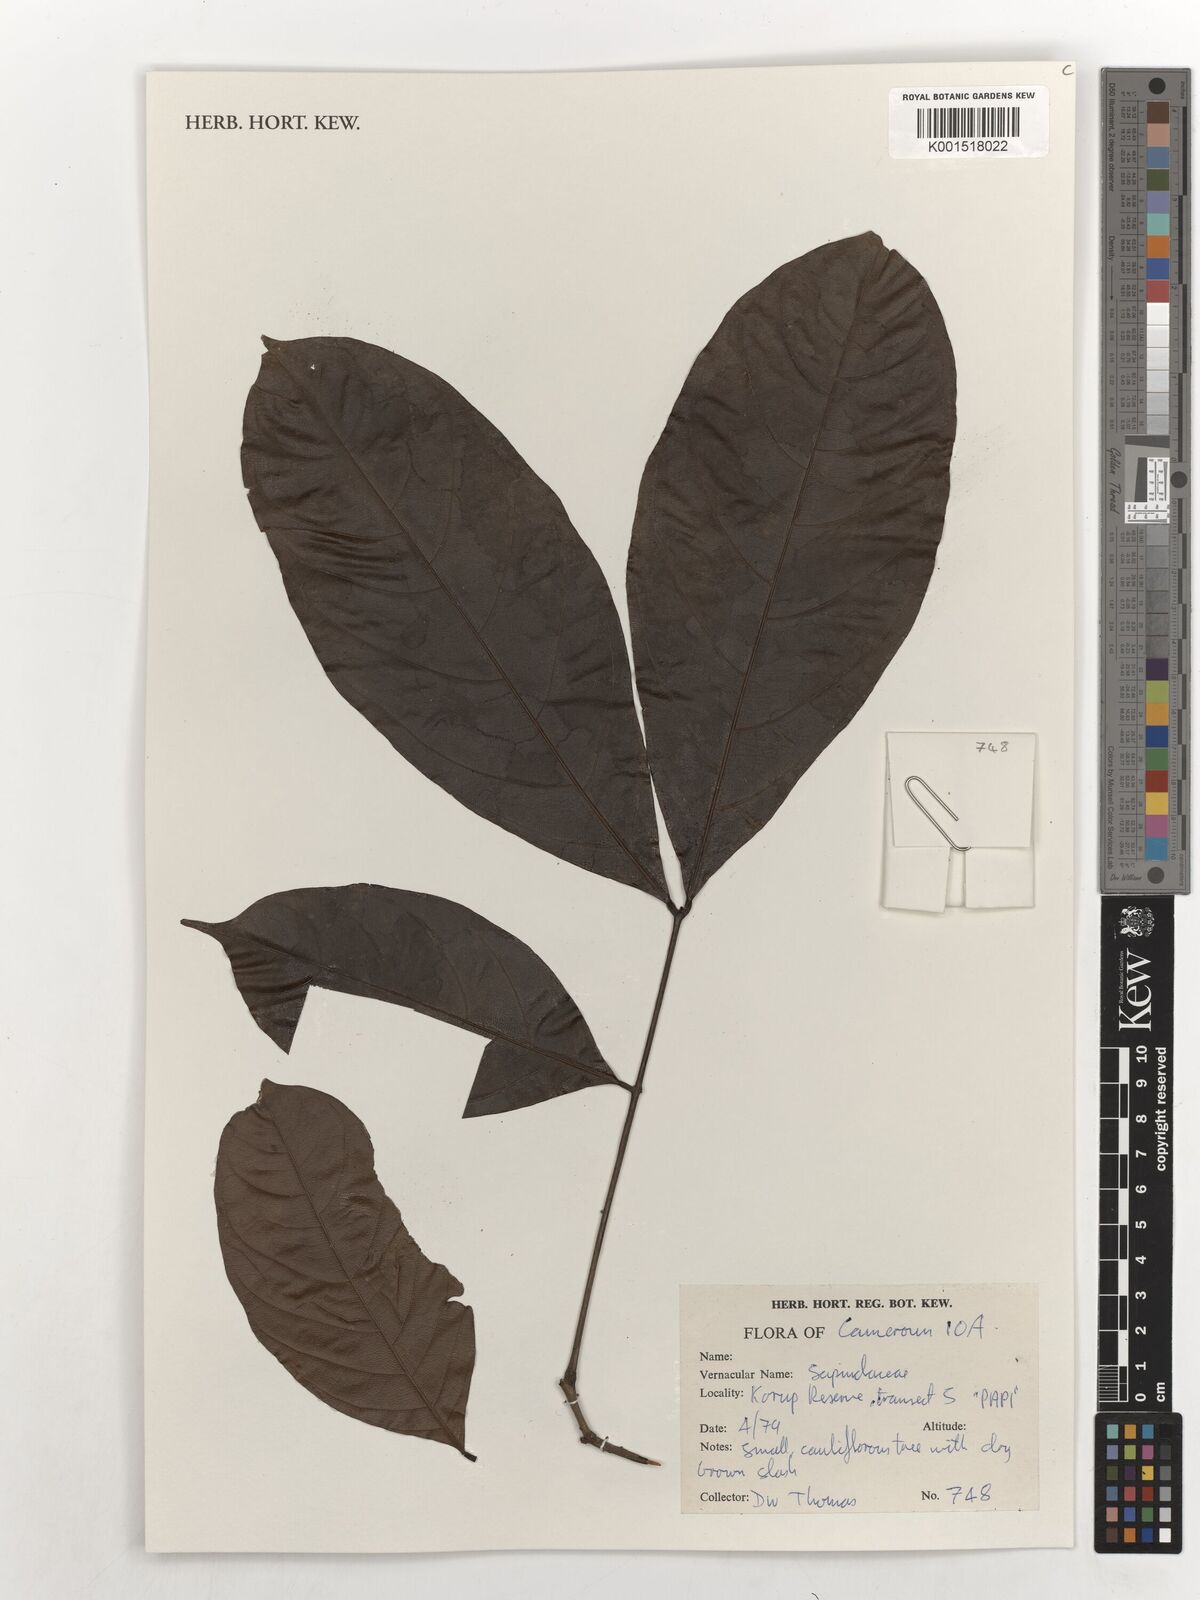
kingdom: Plantae
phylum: Tracheophyta
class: Magnoliopsida
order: Sapindales
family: Sapindaceae
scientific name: Sapindaceae
